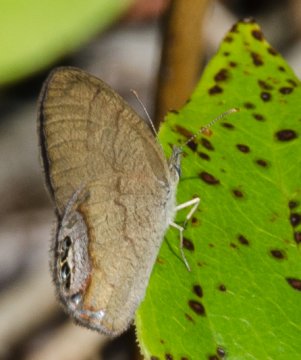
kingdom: Animalia
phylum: Arthropoda
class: Insecta
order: Lepidoptera
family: Nymphalidae
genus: Euptychia
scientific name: Euptychia cornelius
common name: Gemmed Satyr
